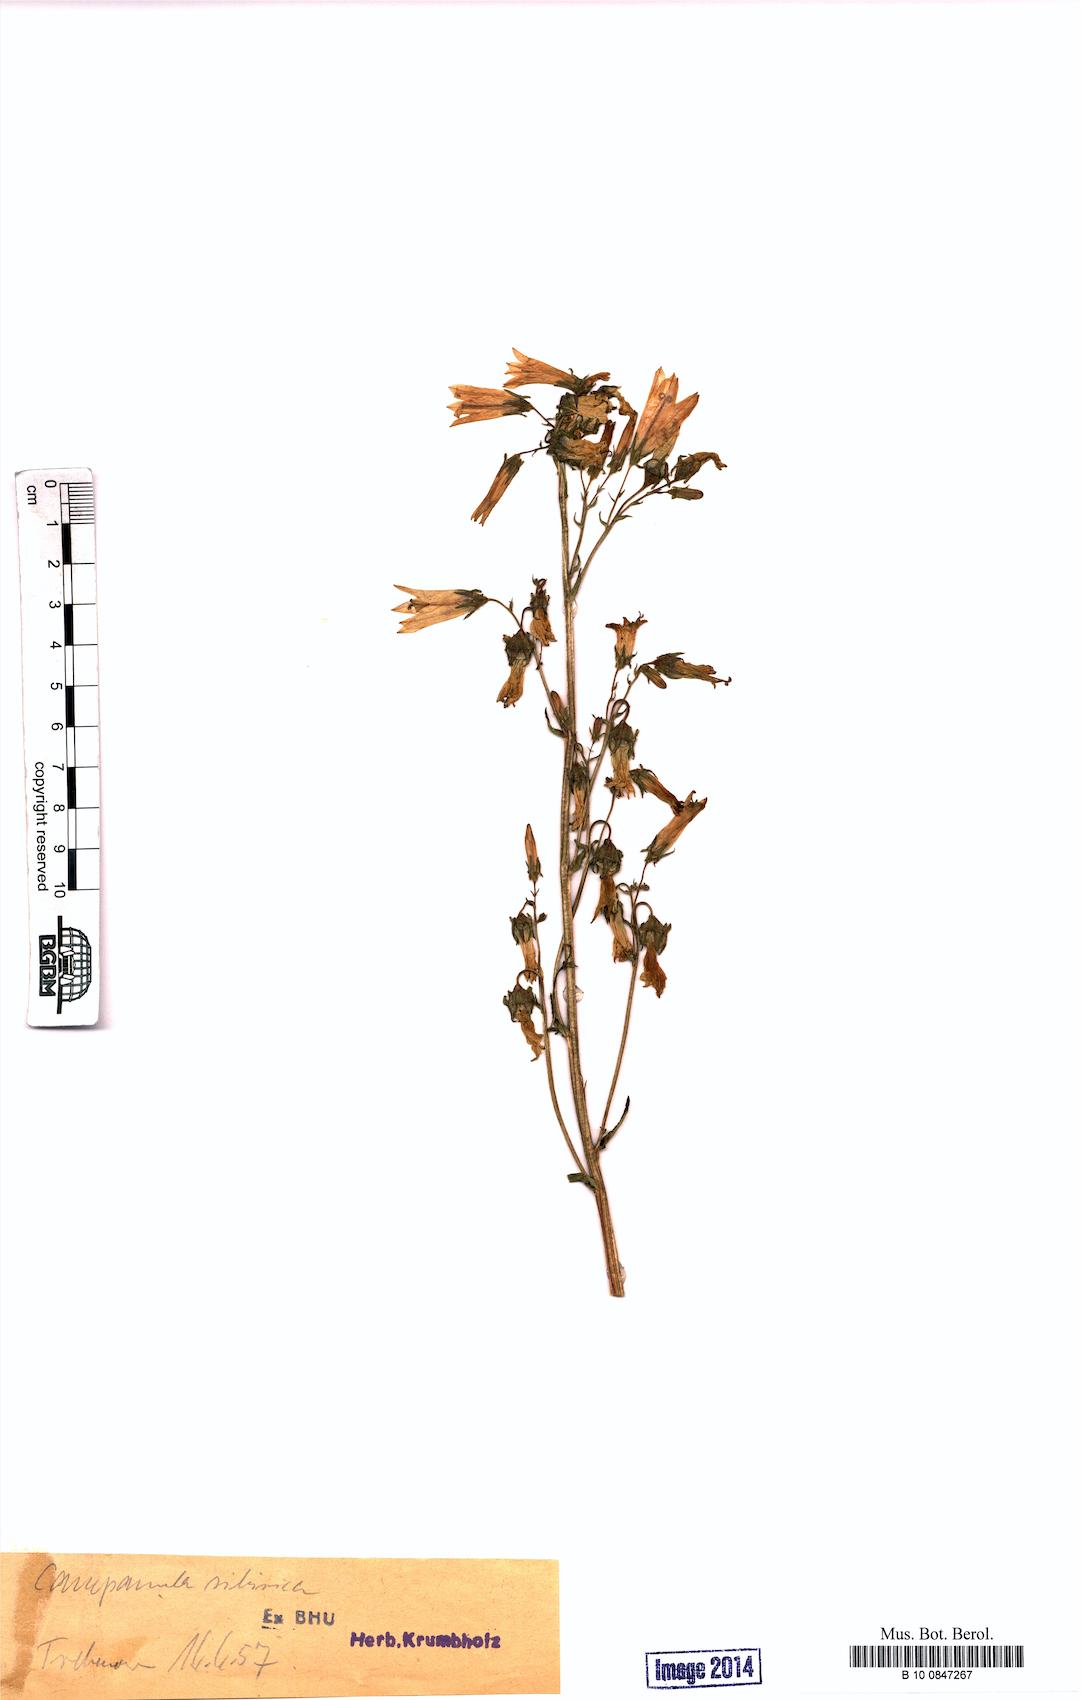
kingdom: Plantae
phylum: Tracheophyta
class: Magnoliopsida
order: Asterales
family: Campanulaceae
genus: Campanula
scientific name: Campanula sibirica
